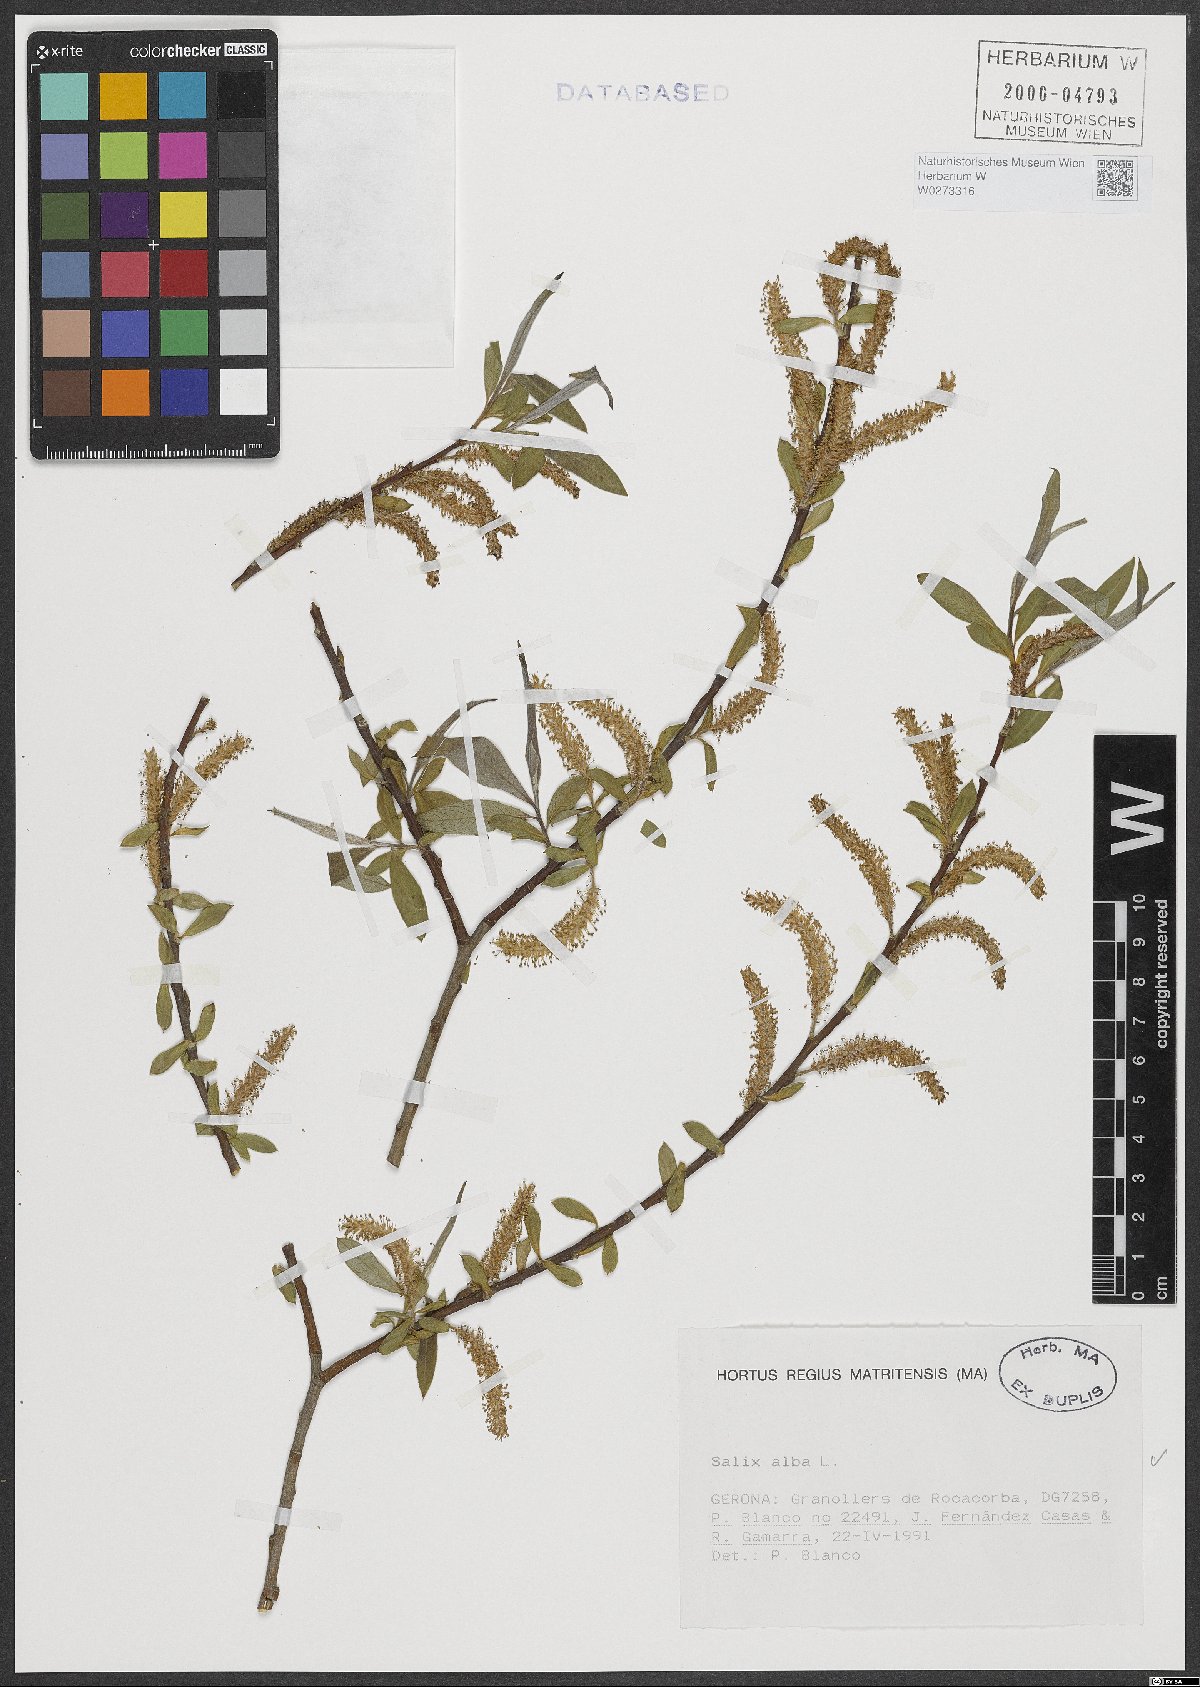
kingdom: Plantae
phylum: Tracheophyta
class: Magnoliopsida
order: Malpighiales
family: Salicaceae
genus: Salix
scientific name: Salix alba
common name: White willow
